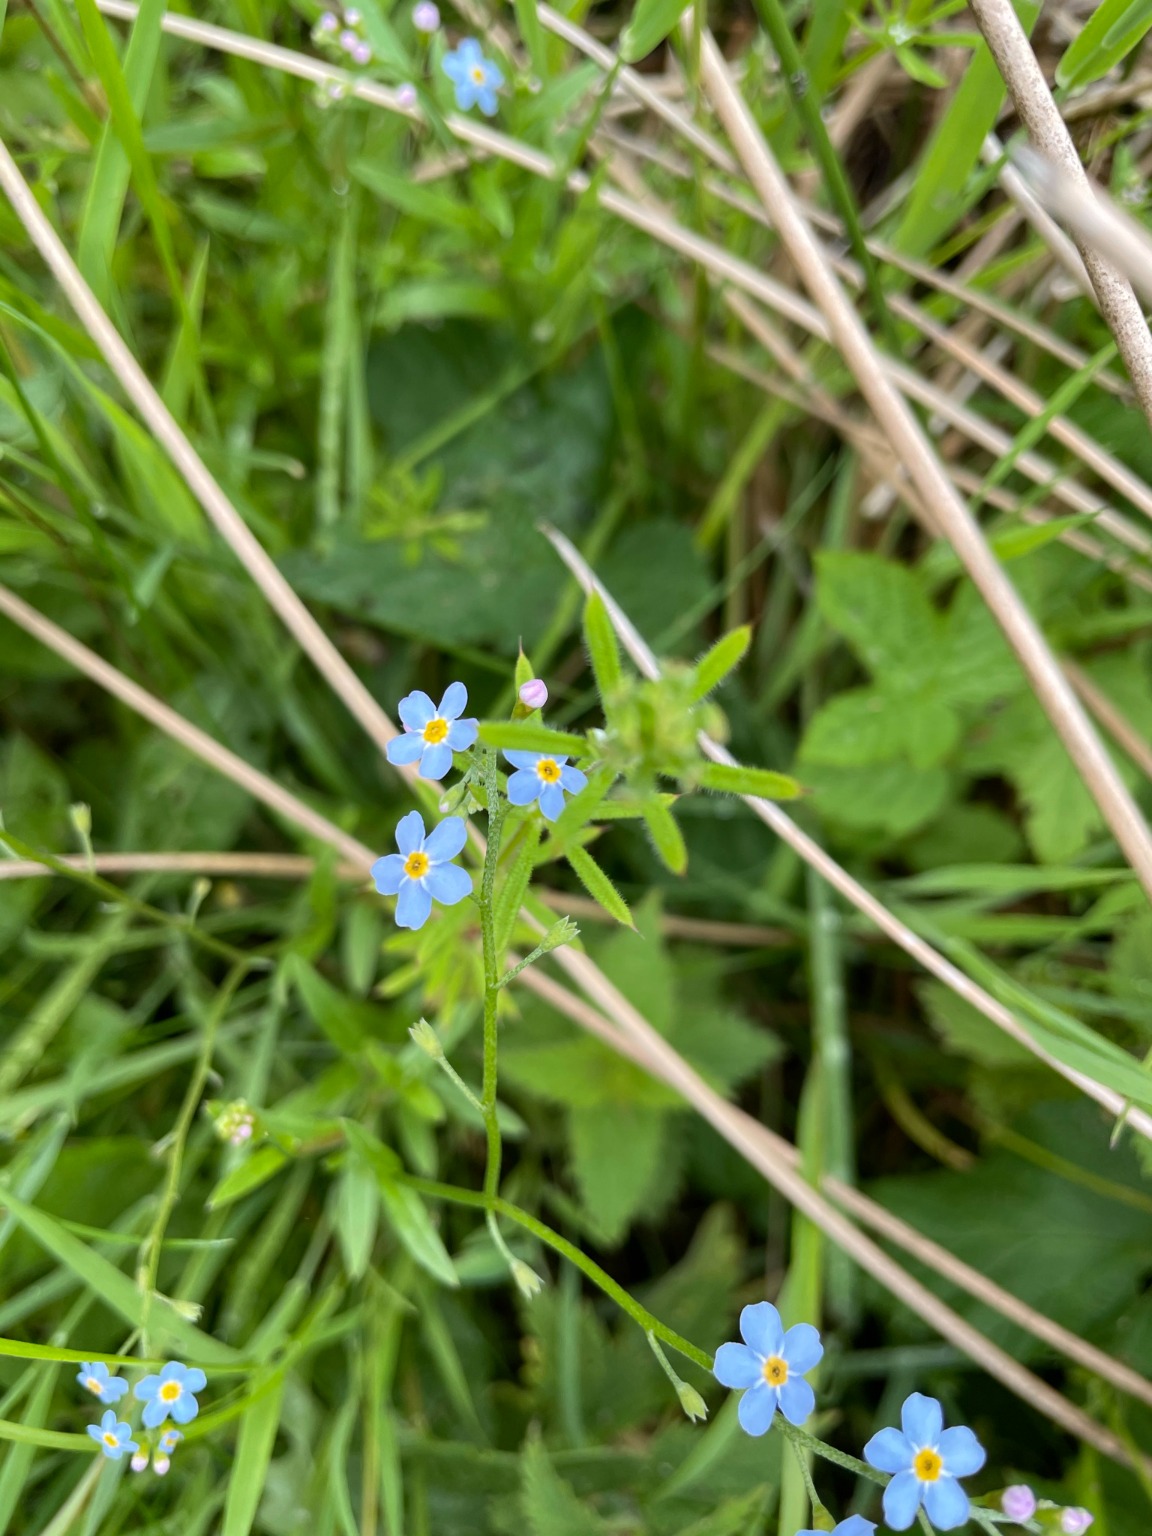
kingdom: Plantae
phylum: Tracheophyta
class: Magnoliopsida
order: Boraginales
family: Boraginaceae
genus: Myosotis
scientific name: Myosotis scorpioides
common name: Eng-forglemmigej
